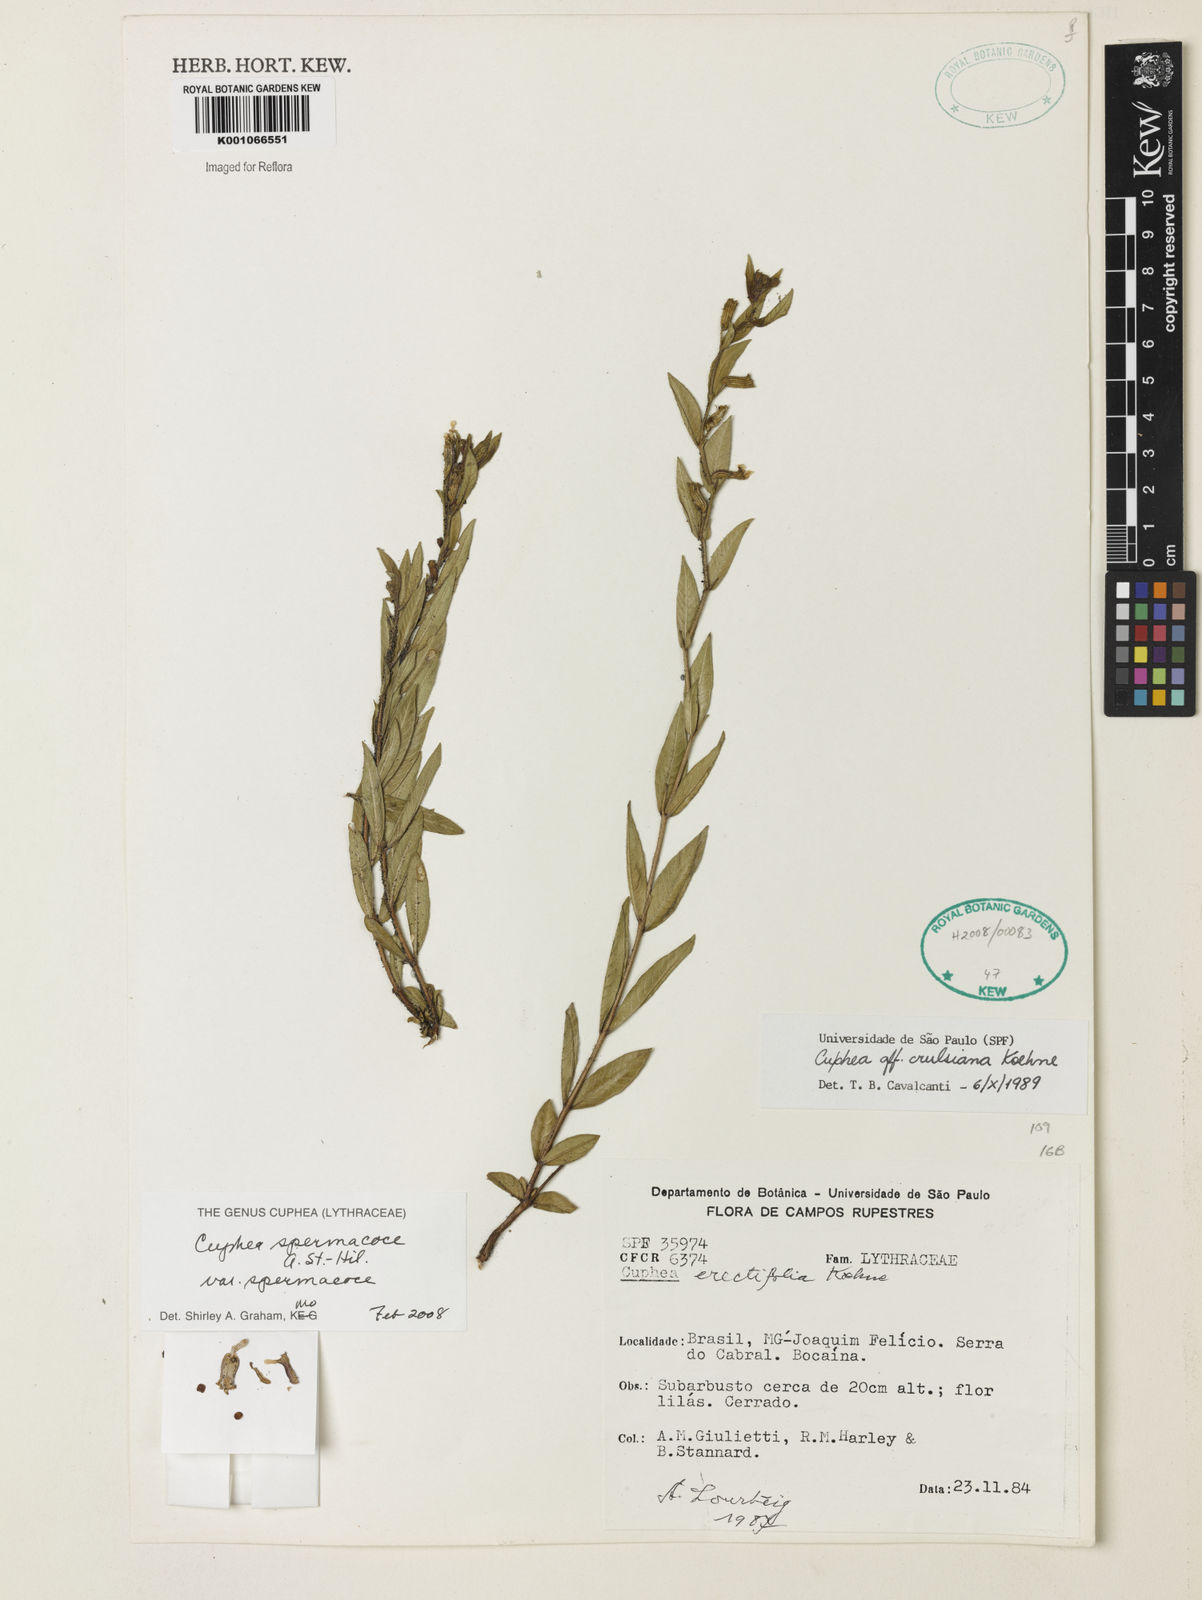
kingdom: Plantae
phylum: Tracheophyta
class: Magnoliopsida
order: Myrtales
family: Lythraceae
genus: Cuphea
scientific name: Cuphea spermacoce
